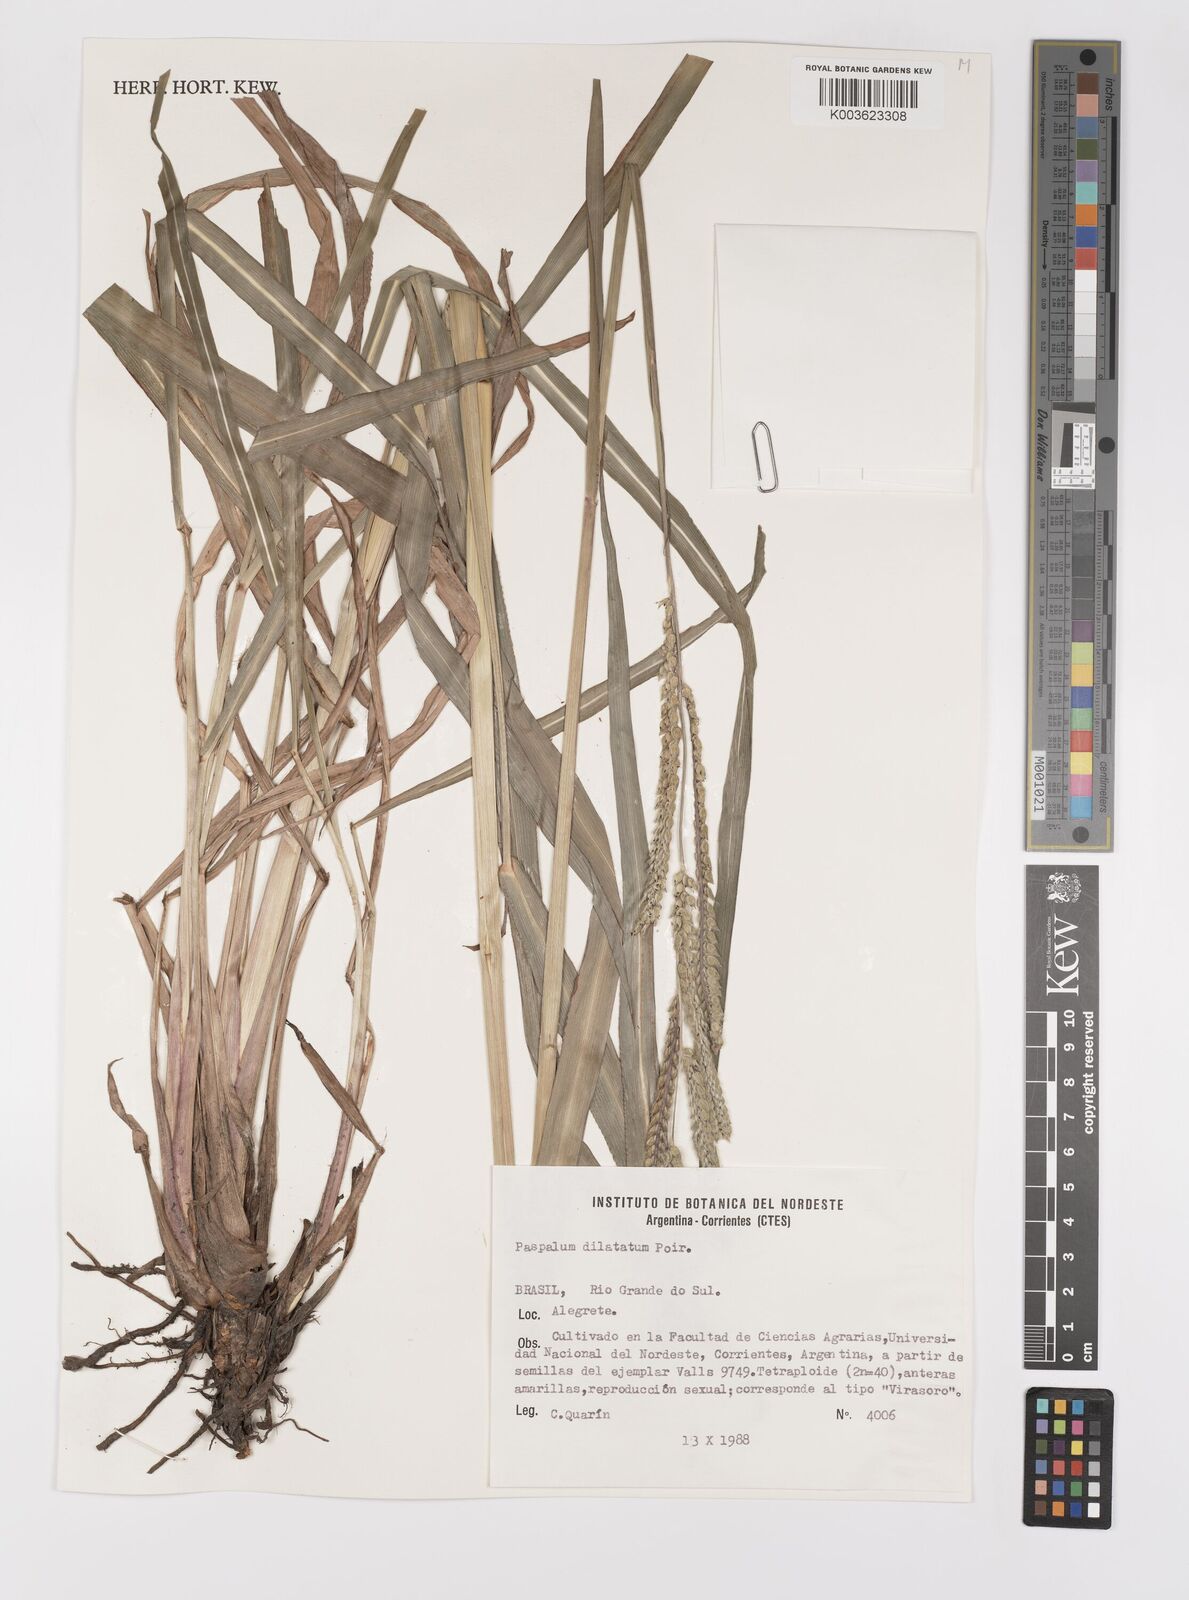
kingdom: Plantae
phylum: Tracheophyta
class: Liliopsida
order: Poales
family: Poaceae
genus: Paspalum
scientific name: Paspalum dilatatum
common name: Dallisgrass
